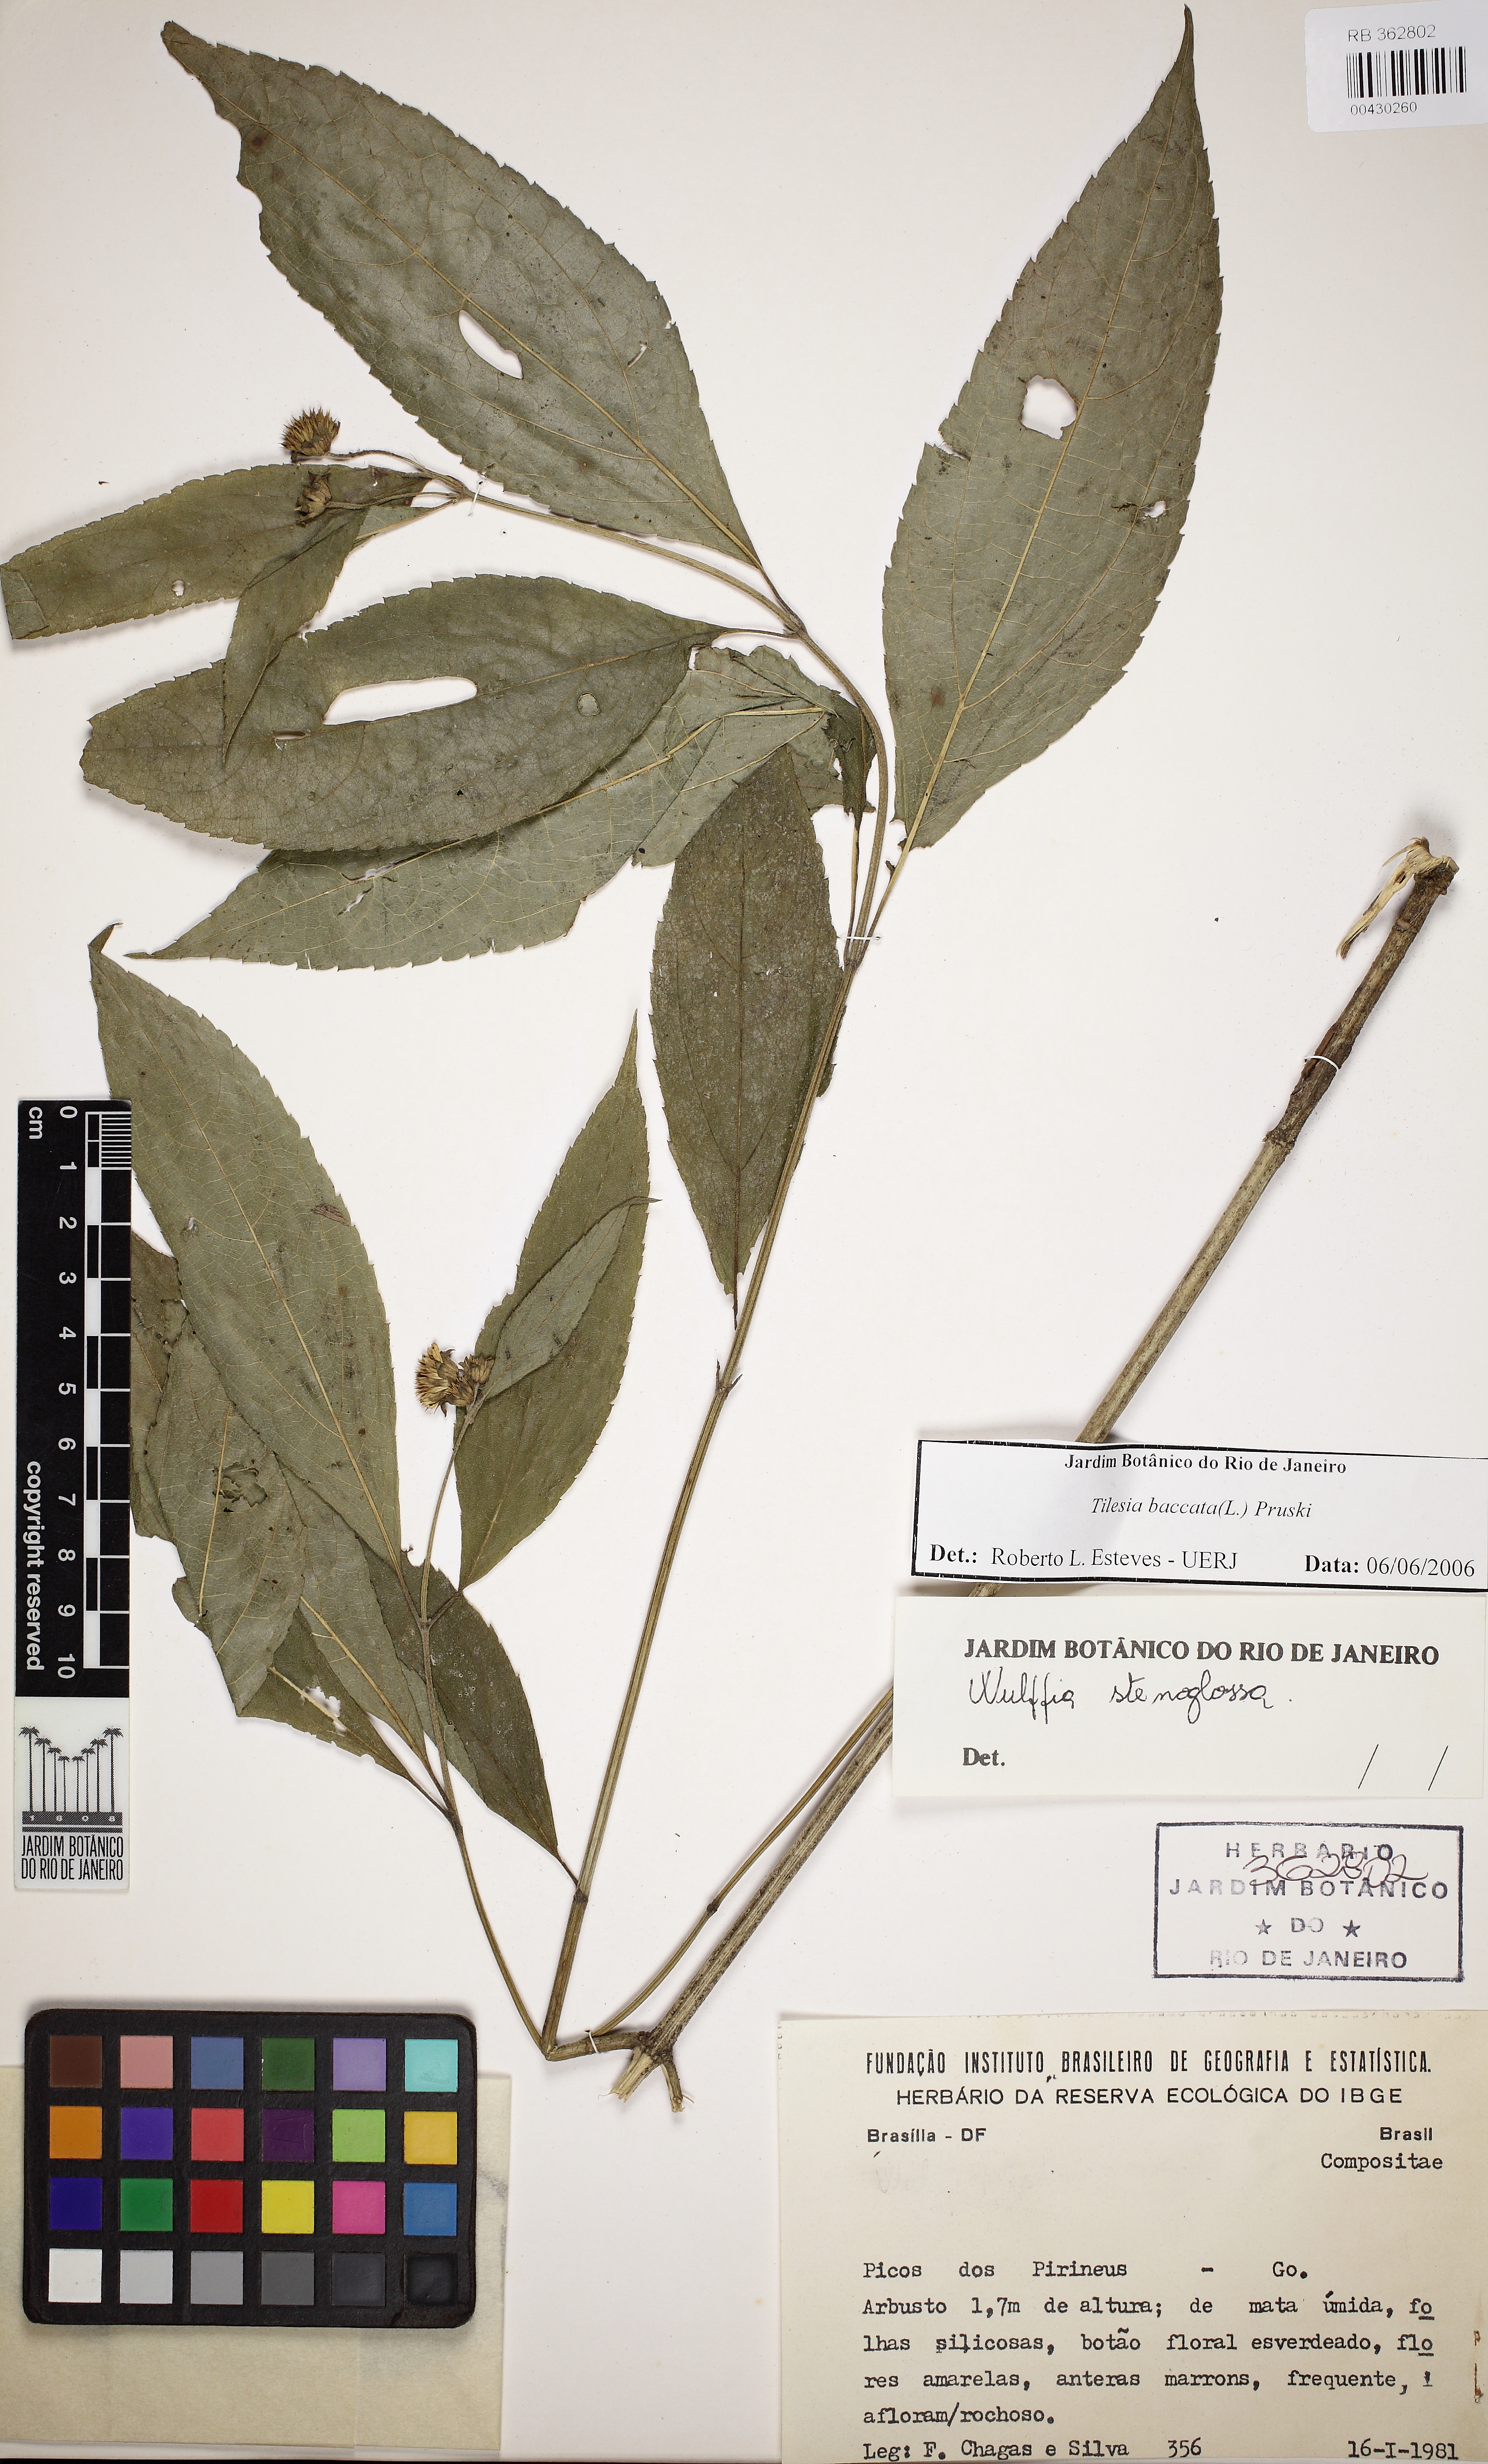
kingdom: Plantae
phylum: Tracheophyta
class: Magnoliopsida
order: Asterales
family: Asteraceae
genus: Tilesia
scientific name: Tilesia baccata
